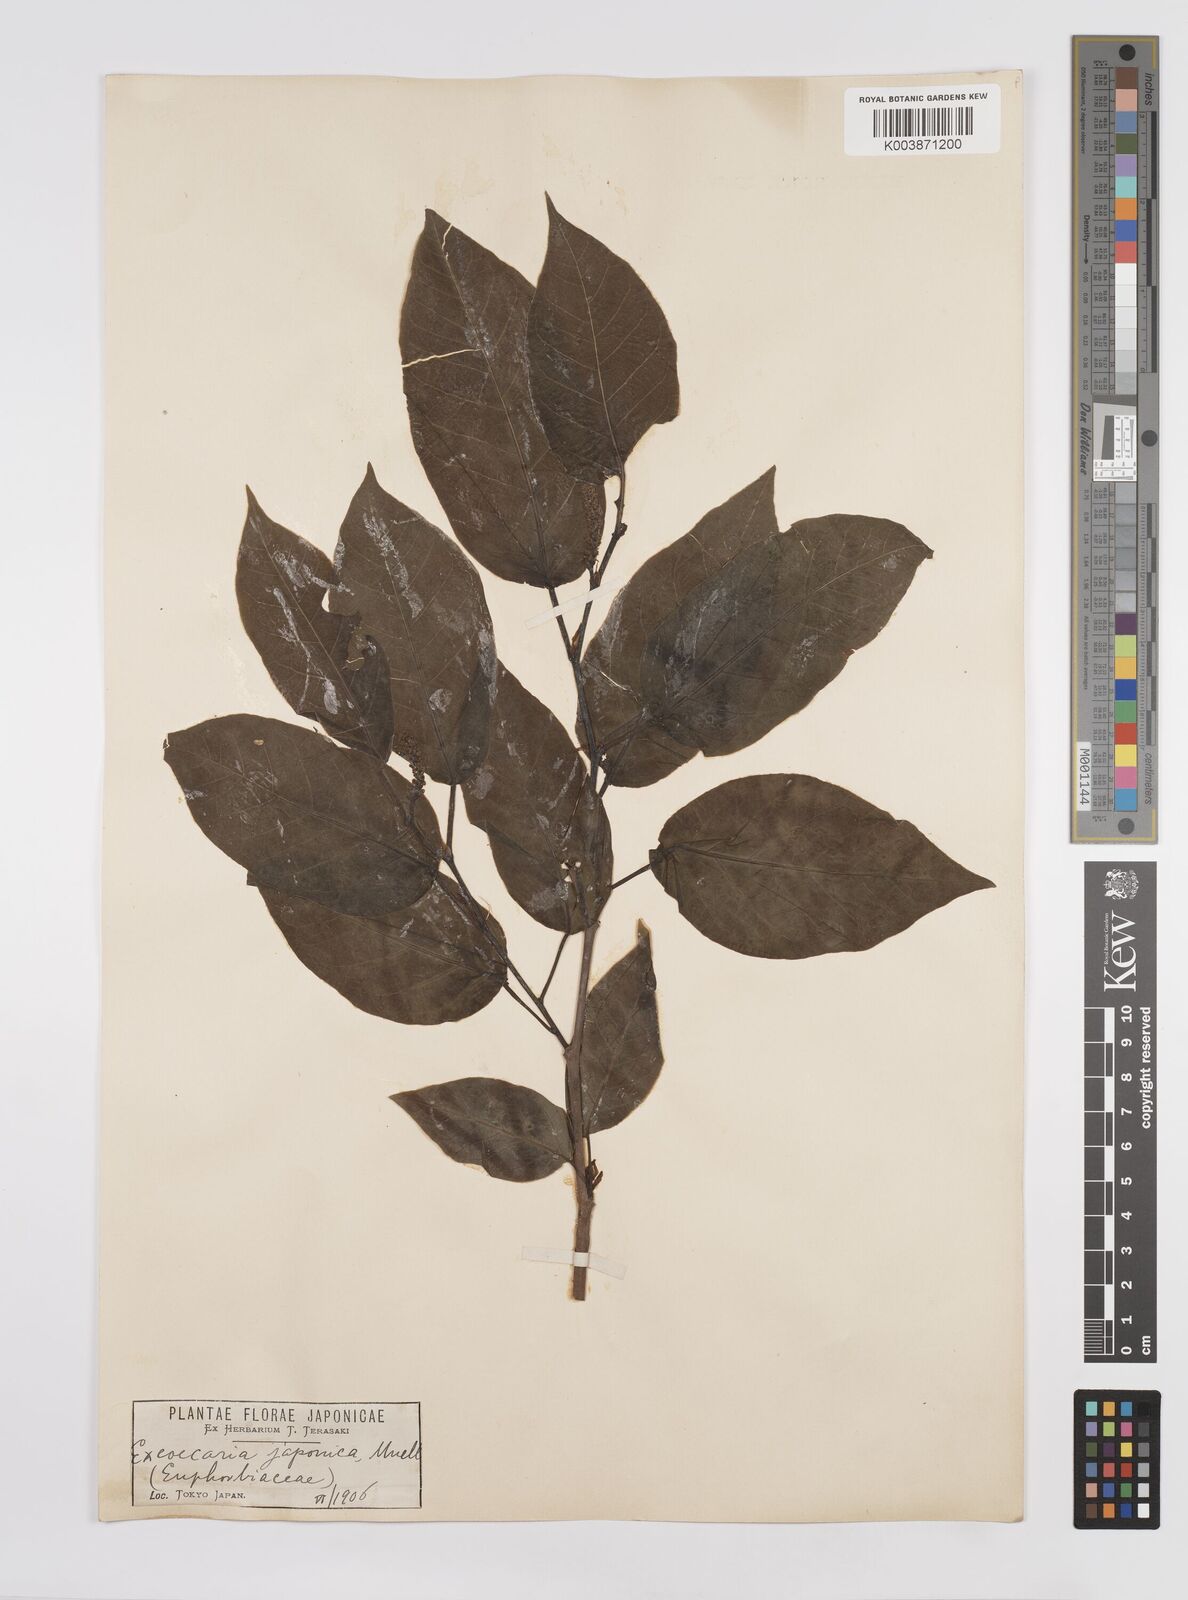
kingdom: Plantae
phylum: Tracheophyta
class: Magnoliopsida
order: Malpighiales
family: Euphorbiaceae
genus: Neoshirakia
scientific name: Neoshirakia japonica
